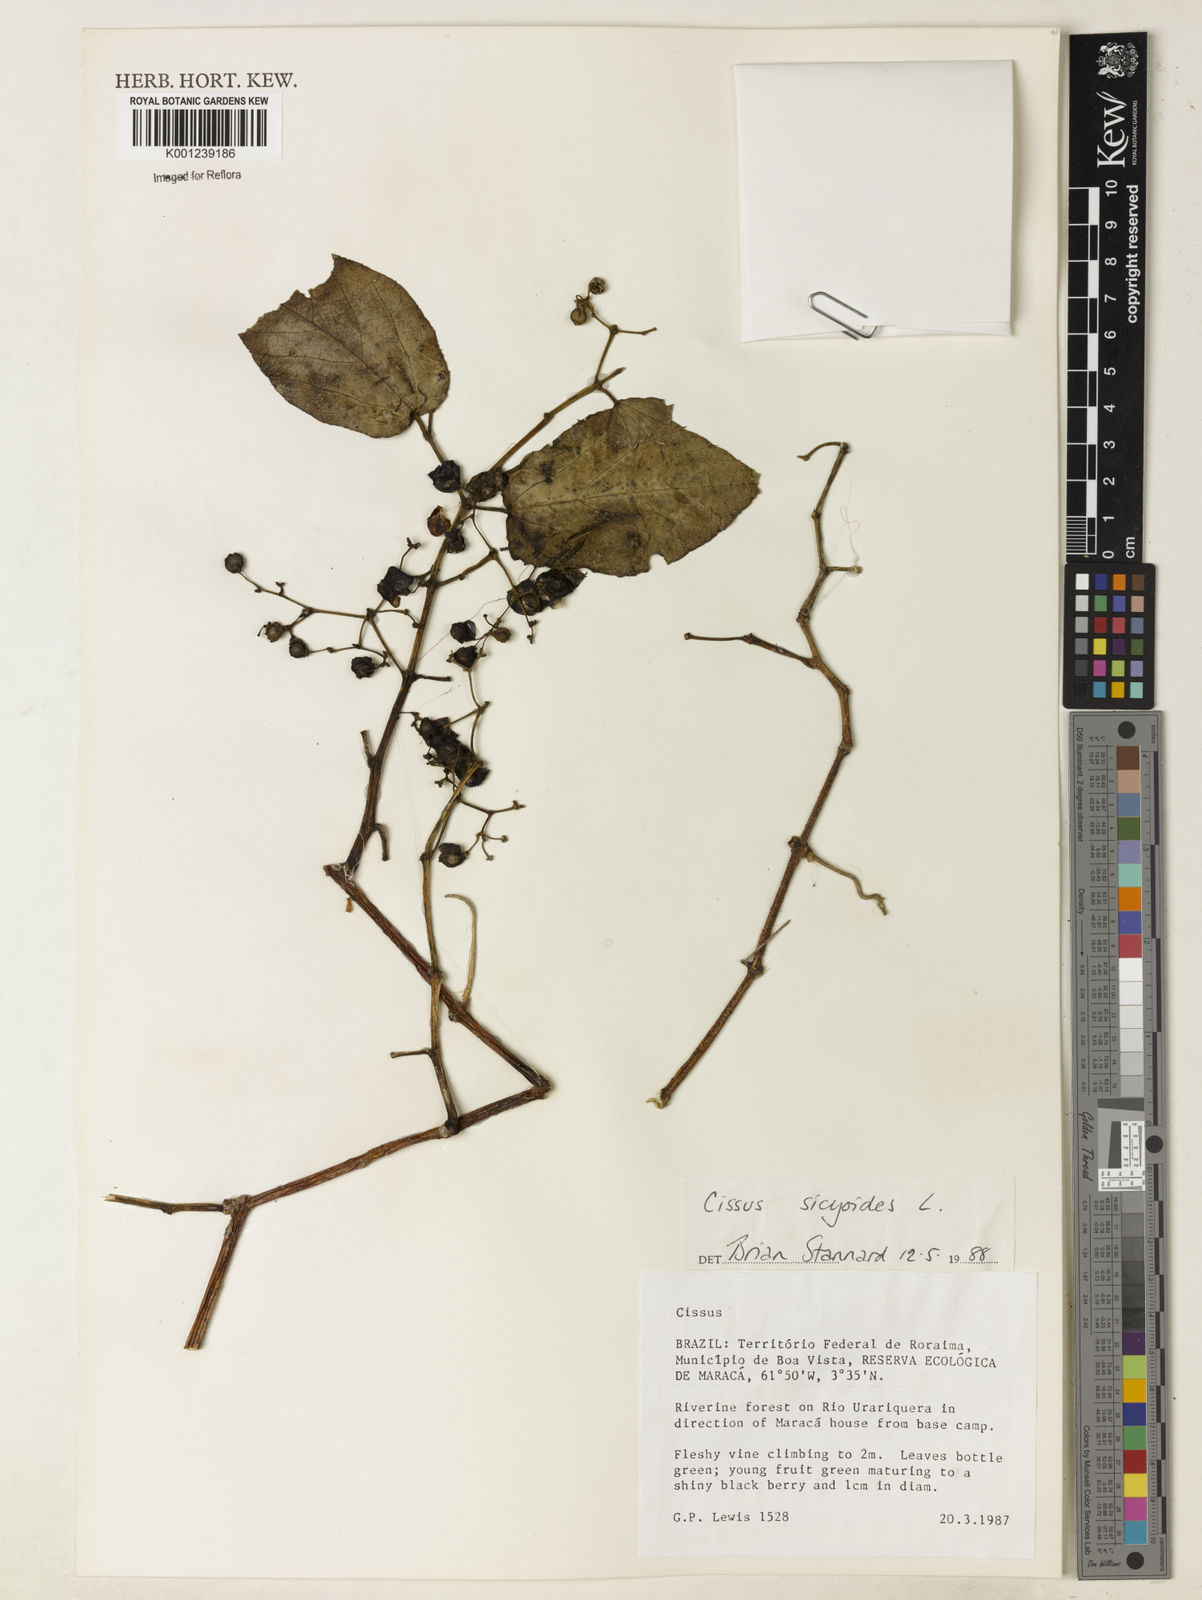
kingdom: Plantae
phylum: Tracheophyta
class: Magnoliopsida
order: Vitales
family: Vitaceae
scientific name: Vitaceae
